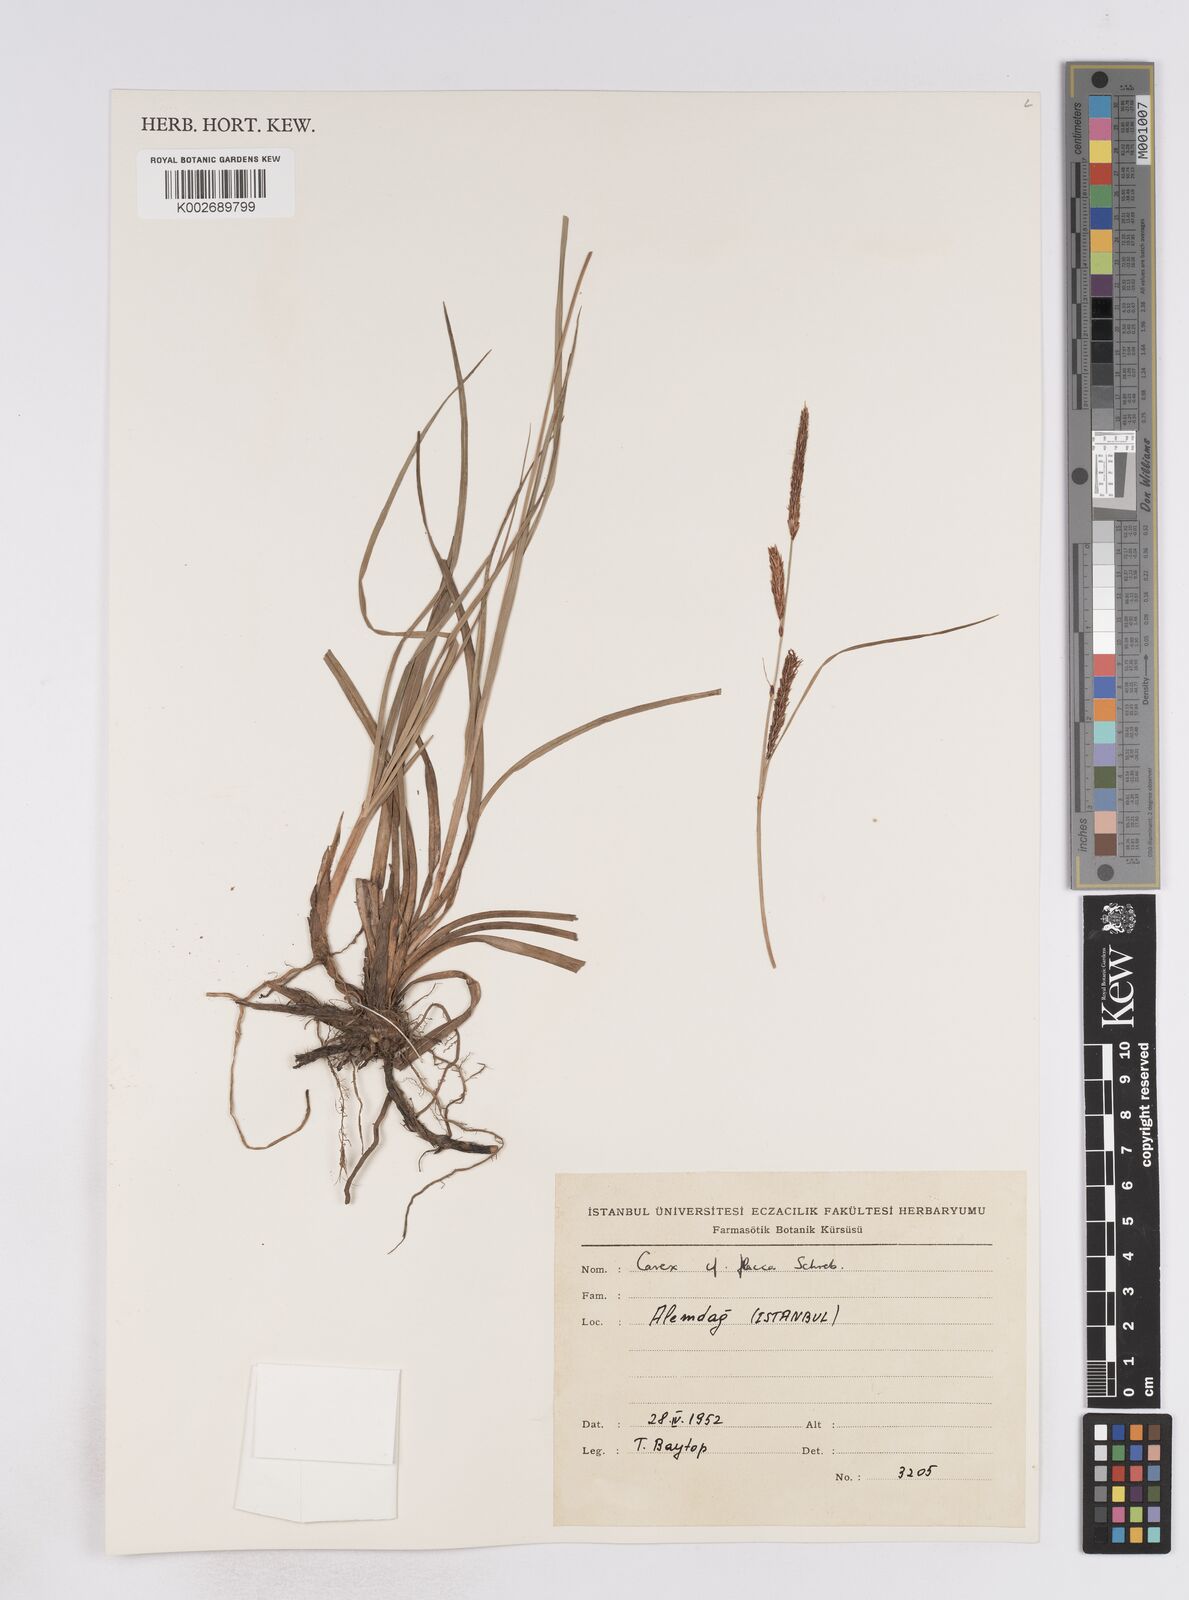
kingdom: Plantae
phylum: Tracheophyta
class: Liliopsida
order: Poales
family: Cyperaceae
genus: Carex
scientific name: Carex flacca
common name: Glaucous sedge
